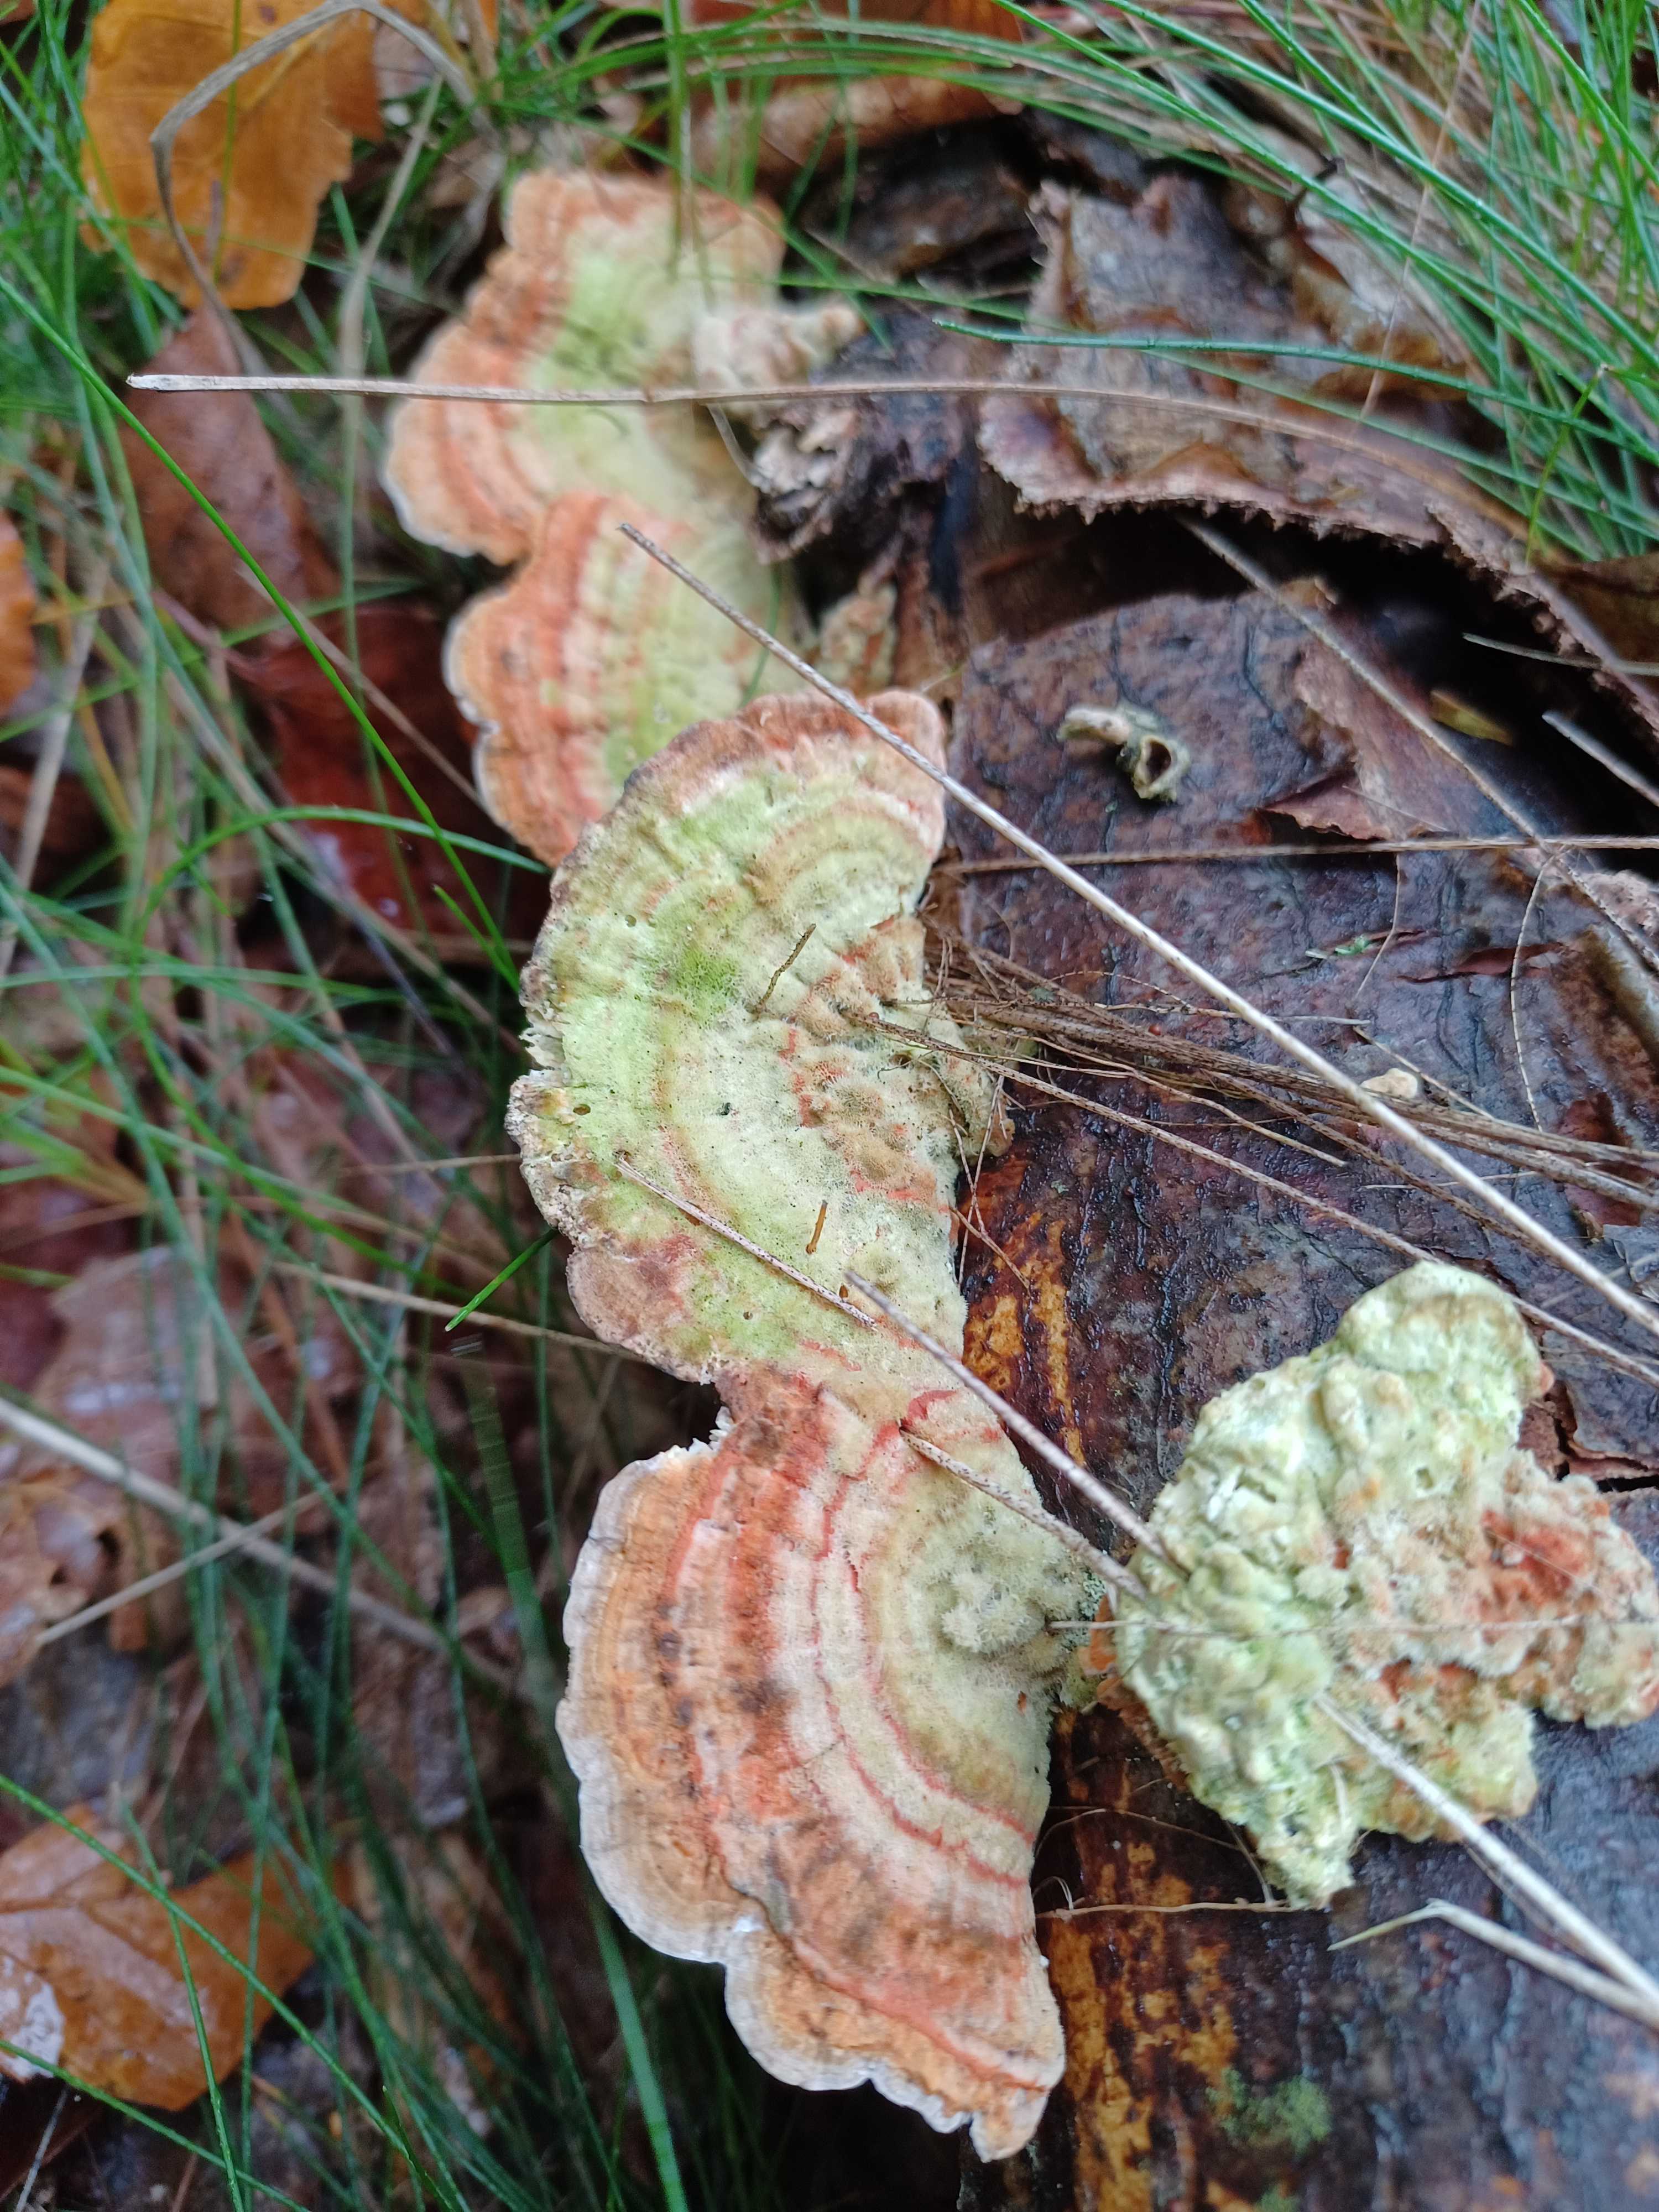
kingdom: Fungi
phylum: Basidiomycota
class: Agaricomycetes
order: Polyporales
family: Polyporaceae
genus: Lenzites
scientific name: Lenzites betulinus
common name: birke-læderporesvamp
